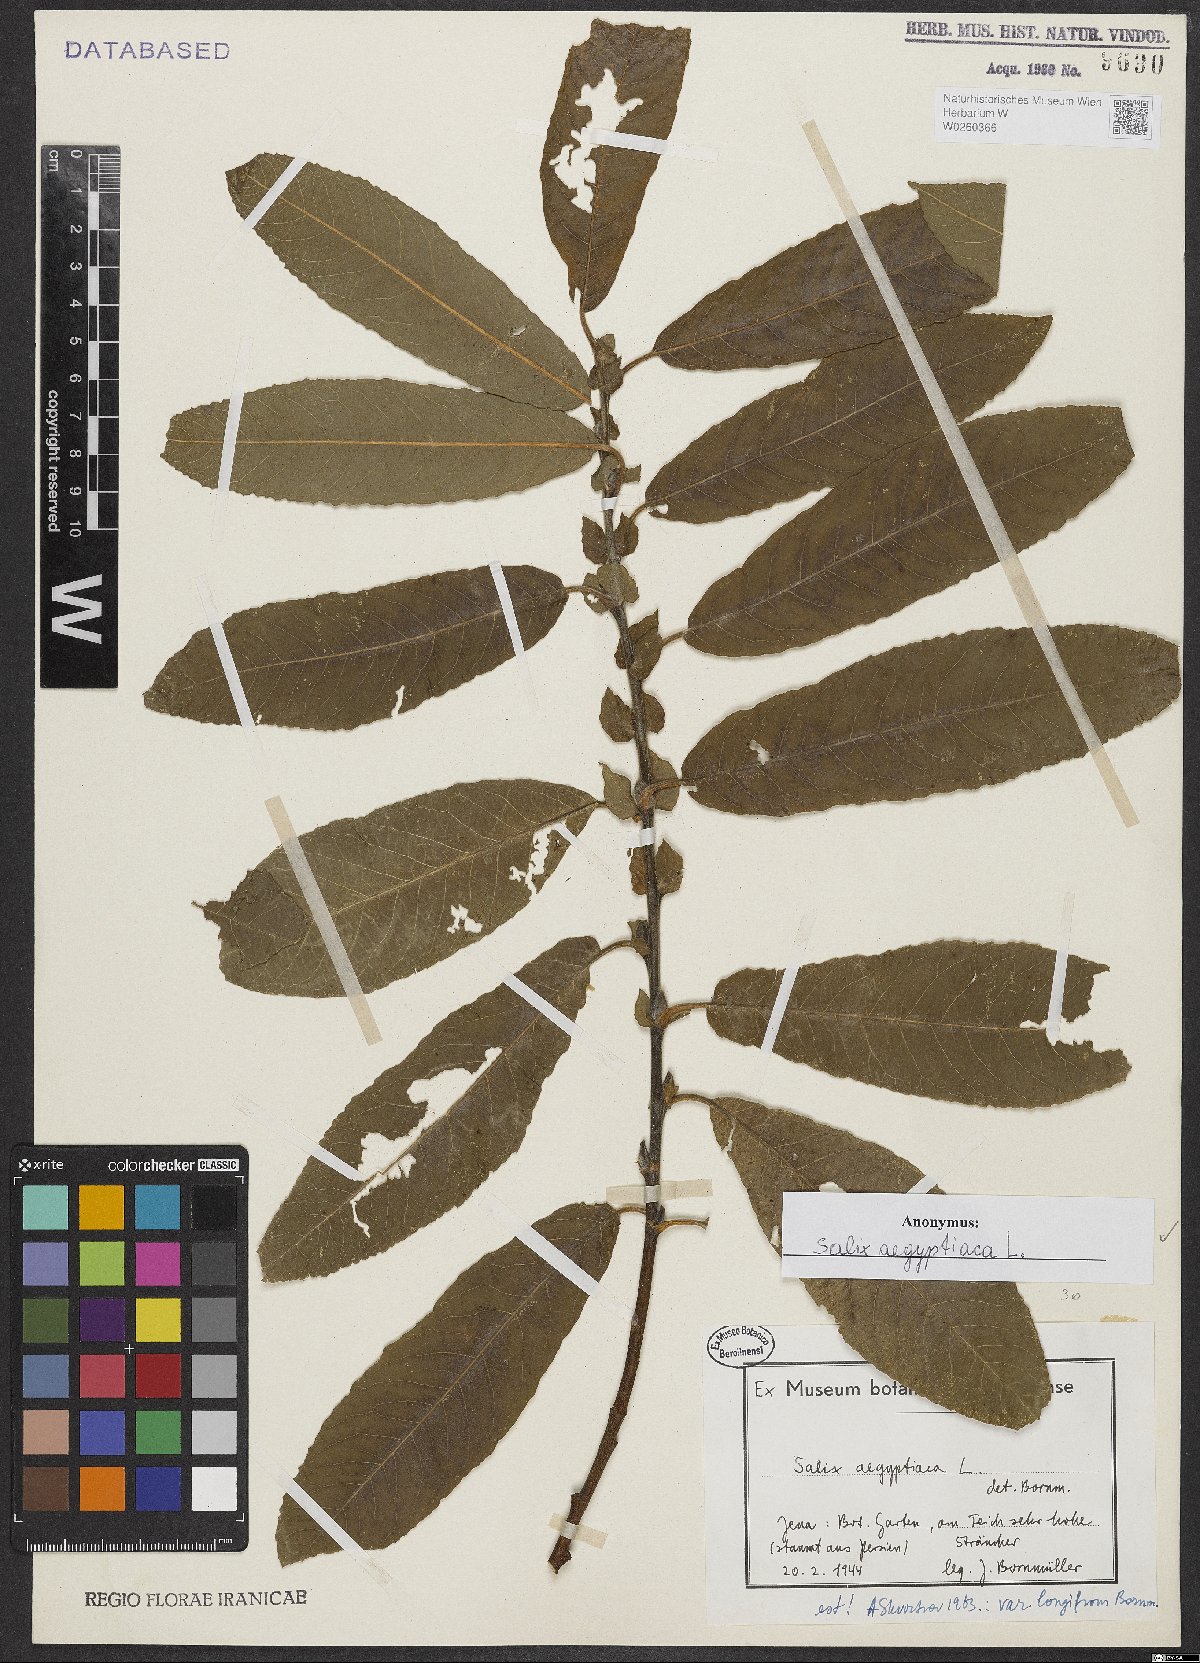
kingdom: Plantae
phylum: Tracheophyta
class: Magnoliopsida
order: Malpighiales
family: Salicaceae
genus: Salix
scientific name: Salix aegyptiaca
